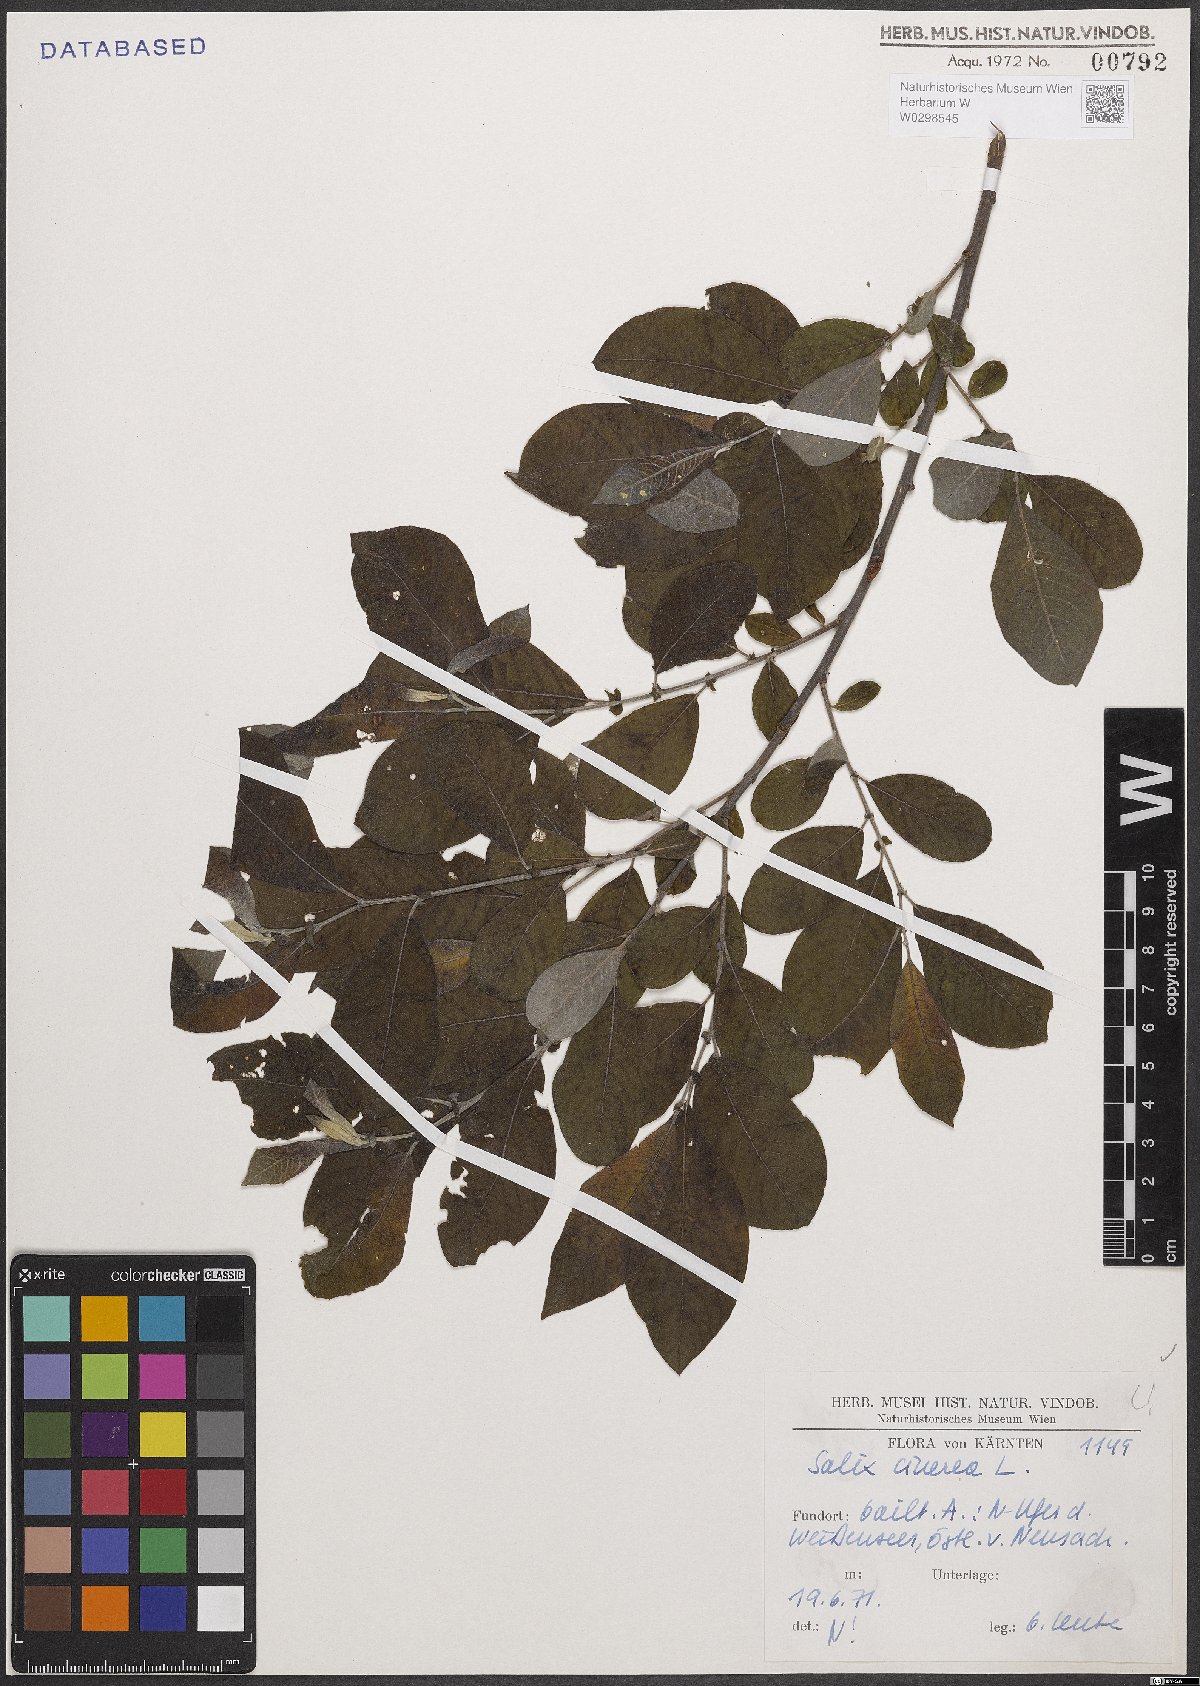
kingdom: Plantae
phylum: Tracheophyta
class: Magnoliopsida
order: Malpighiales
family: Salicaceae
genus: Salix
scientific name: Salix cinerea
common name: Common sallow
